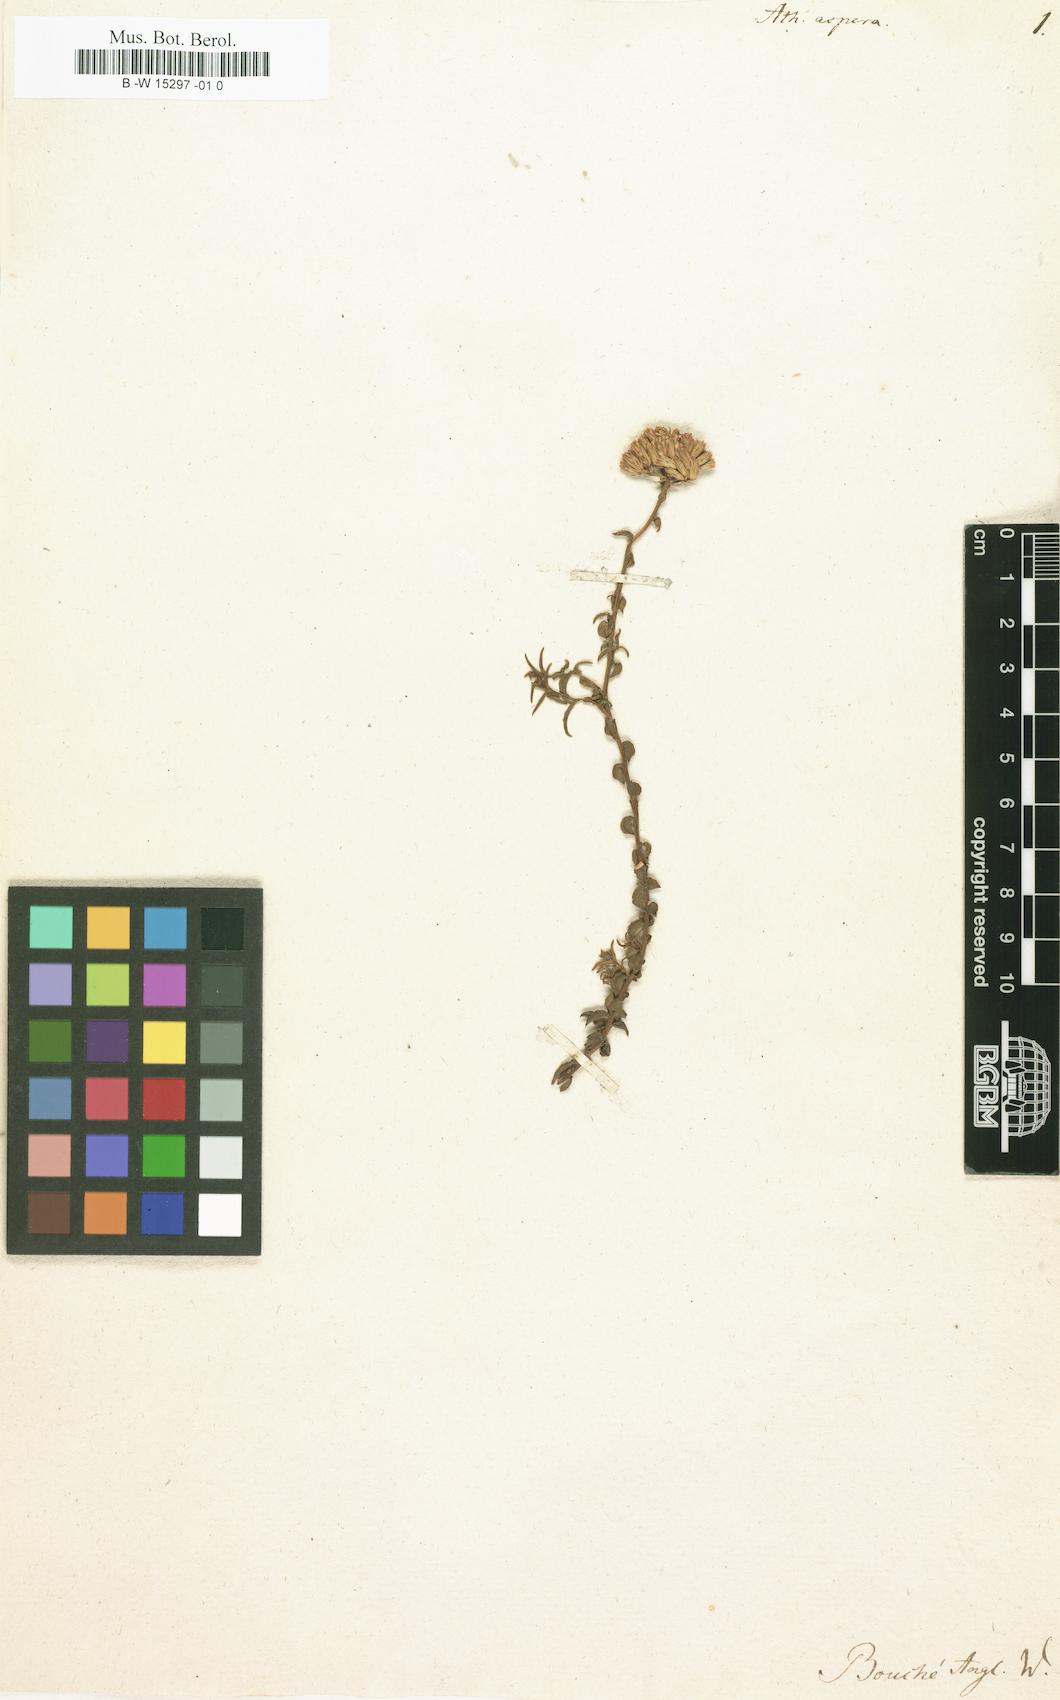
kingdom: Plantae
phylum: Tracheophyta
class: Magnoliopsida
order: Asterales
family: Asteraceae
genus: Athanasia
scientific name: Athanasia dentata
